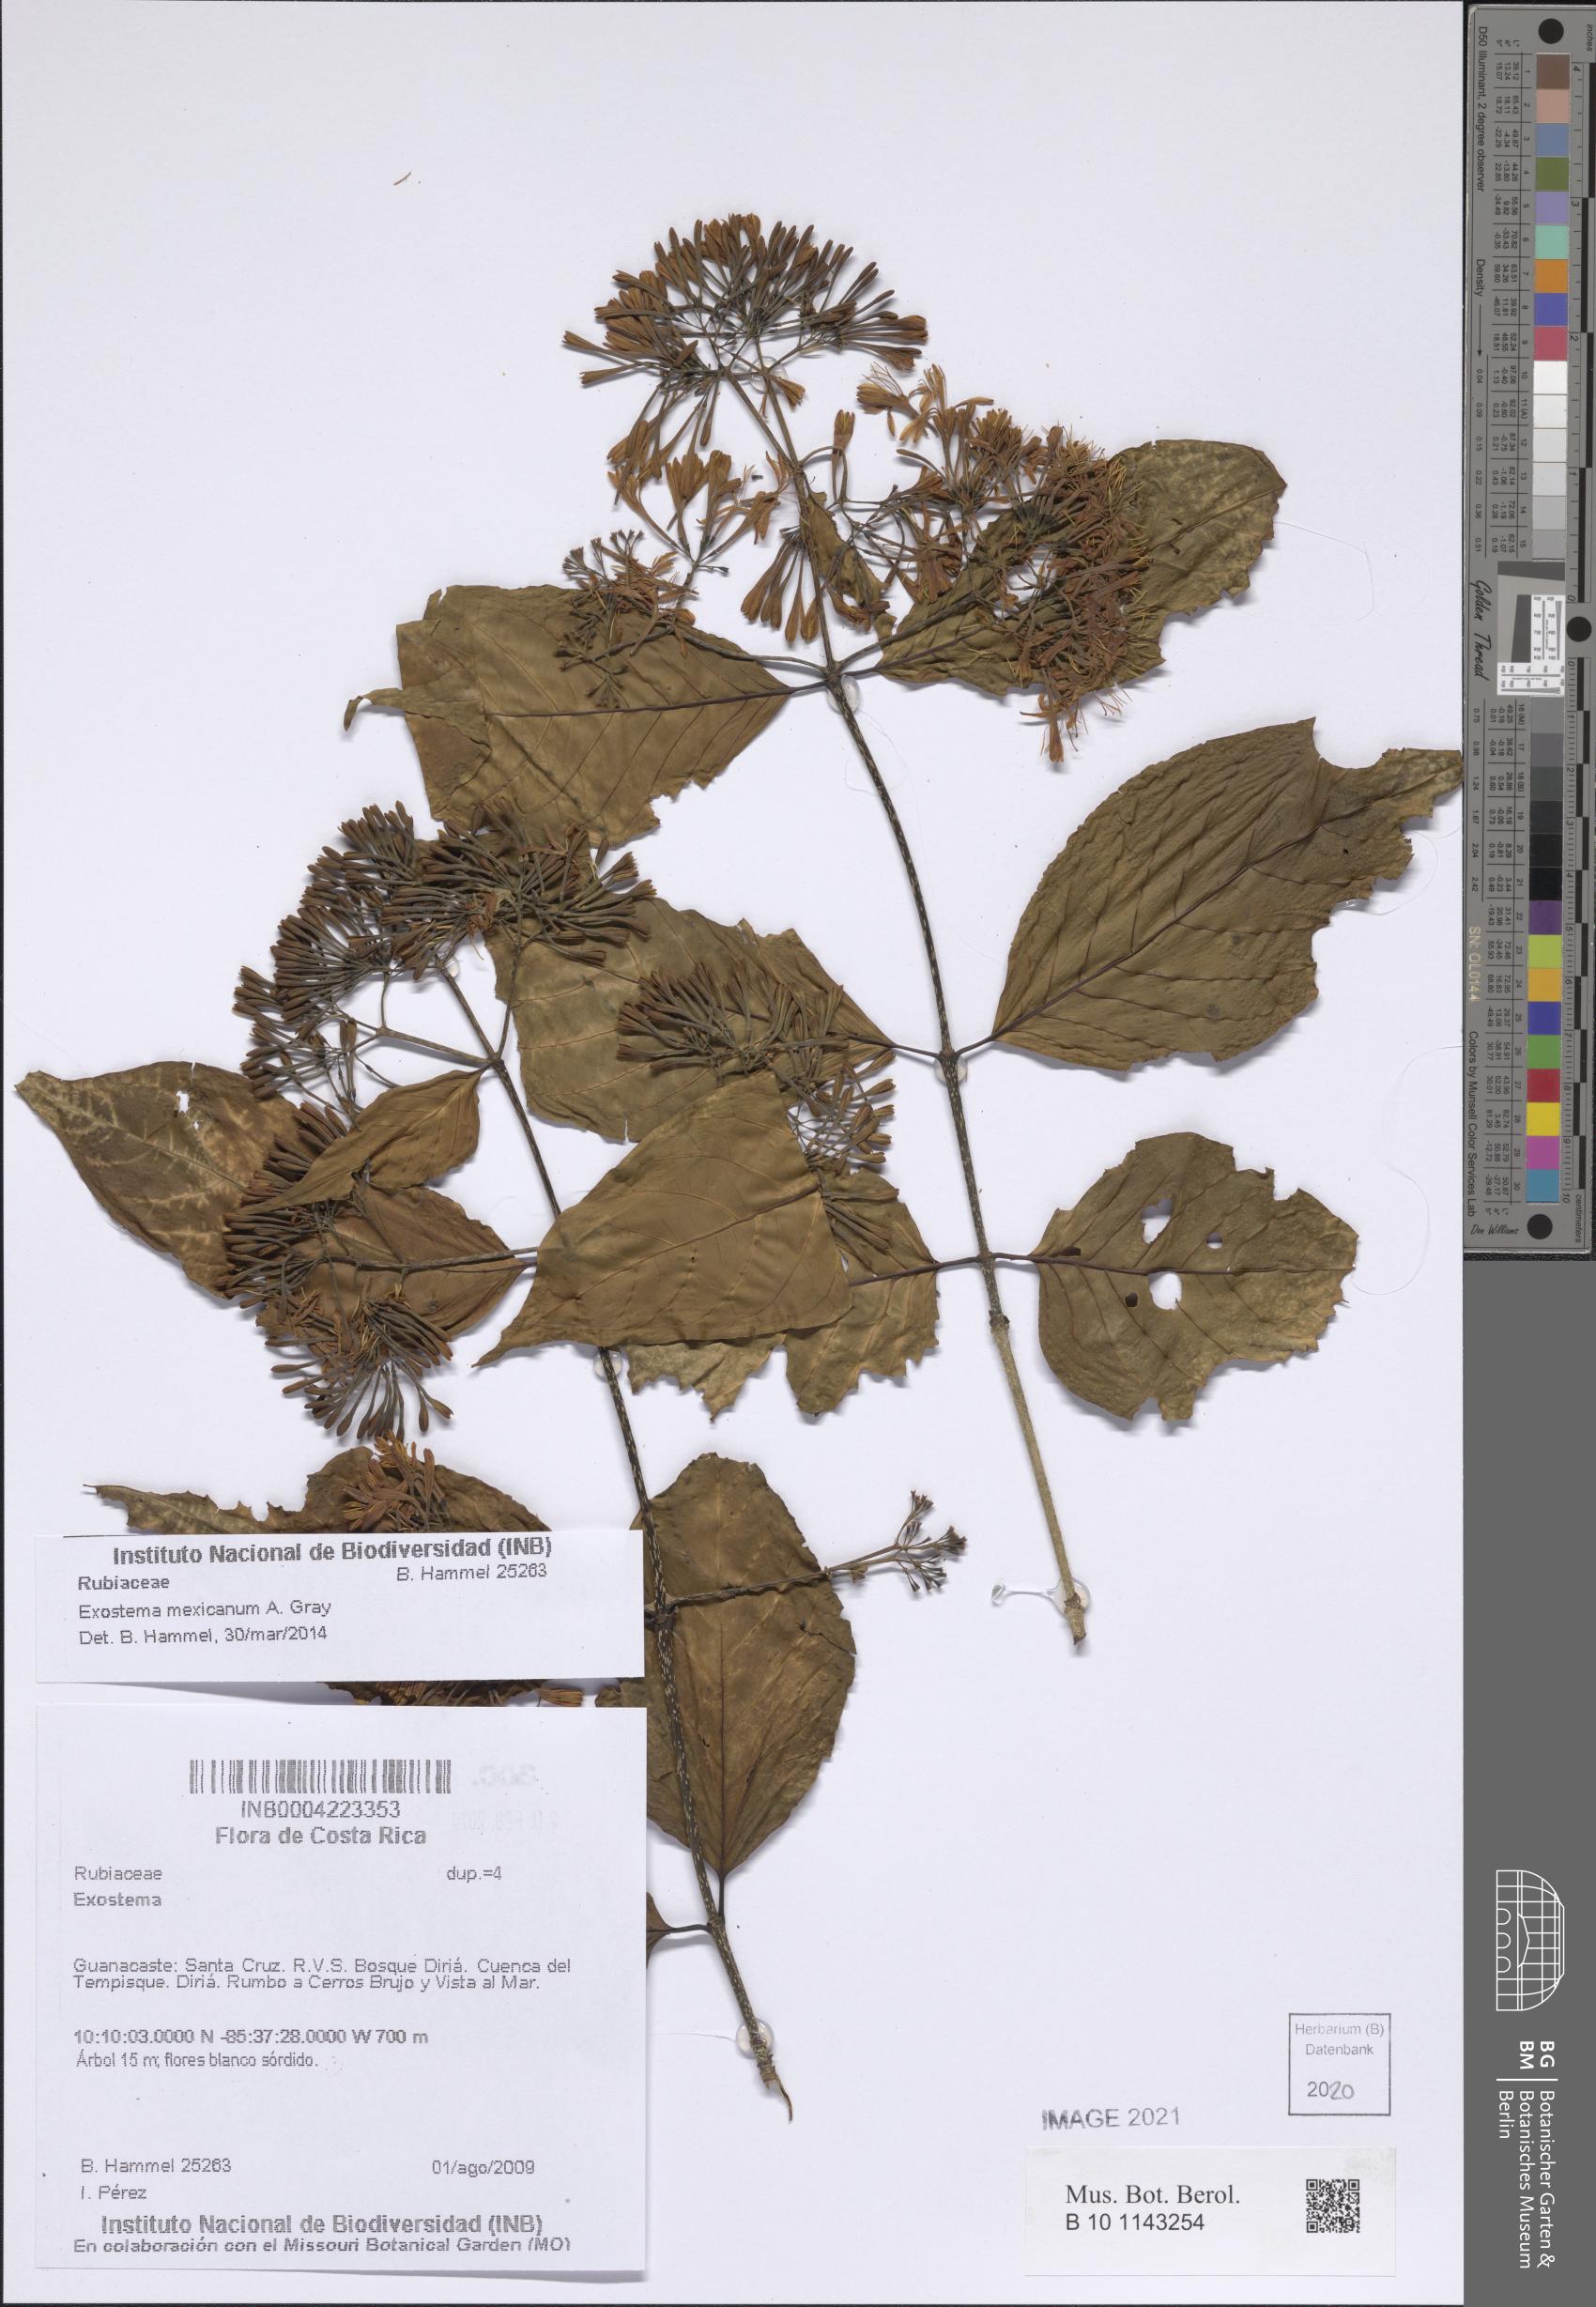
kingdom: Plantae
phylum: Tracheophyta
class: Magnoliopsida
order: Gentianales
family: Rubiaceae
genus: Solenandra
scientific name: Solenandra mexicana
